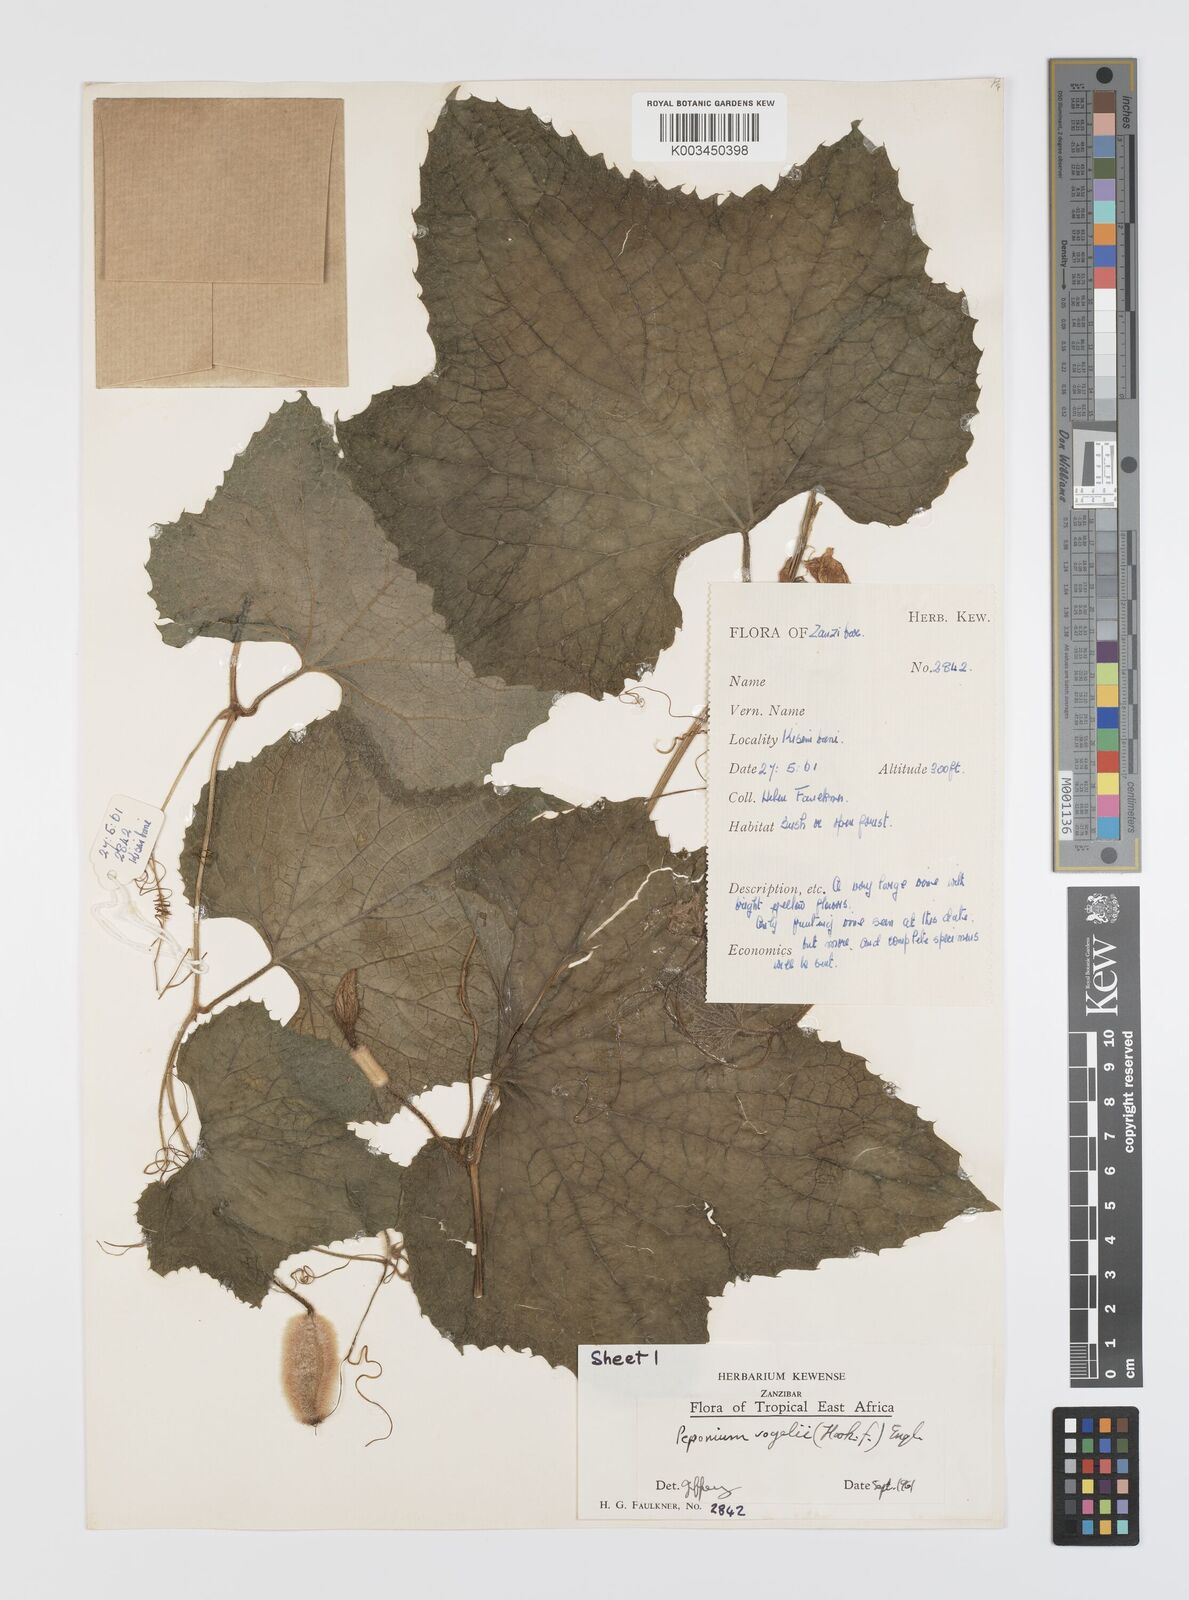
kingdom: Plantae
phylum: Tracheophyta
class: Magnoliopsida
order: Cucurbitales
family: Cucurbitaceae
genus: Peponium
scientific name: Peponium vogelii
